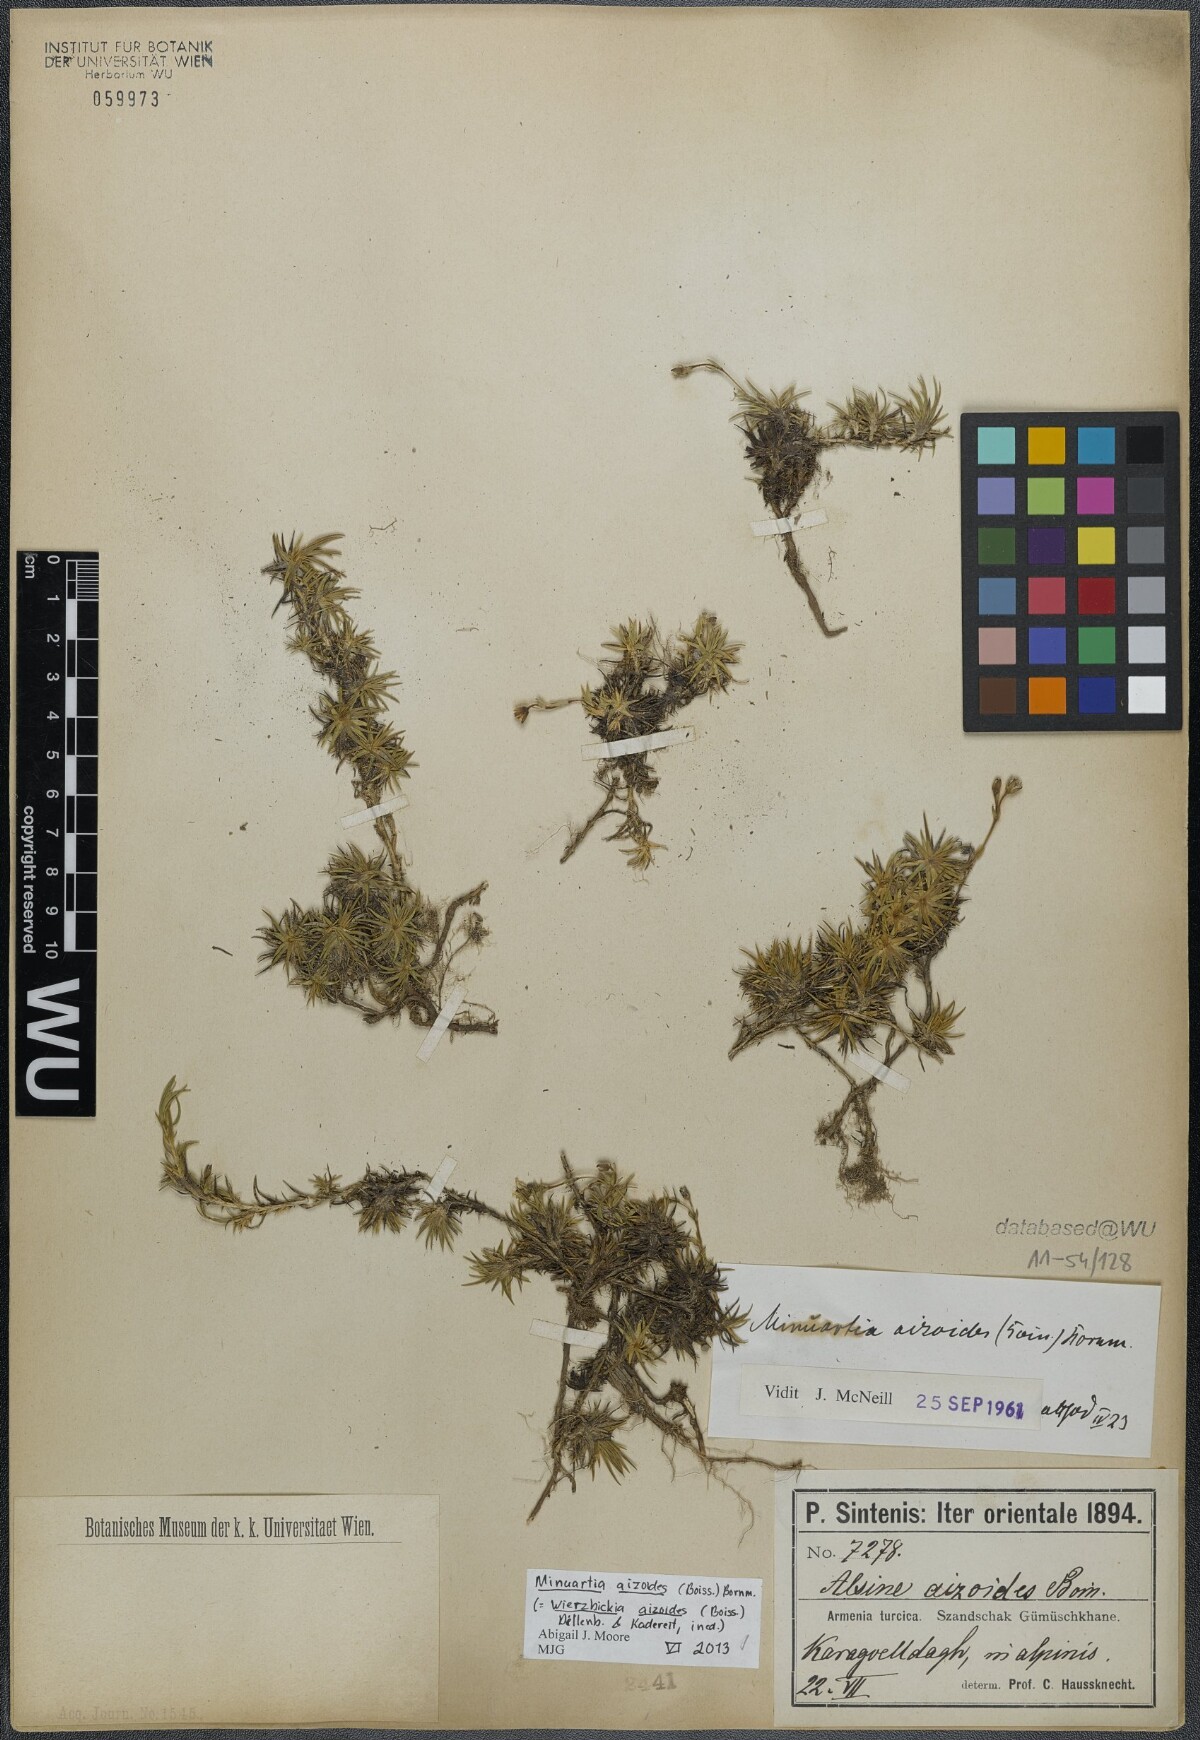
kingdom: Plantae
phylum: Tracheophyta
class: Magnoliopsida
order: Caryophyllales
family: Caryophyllaceae
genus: Pseudocherleria
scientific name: Pseudocherleria aizoides
